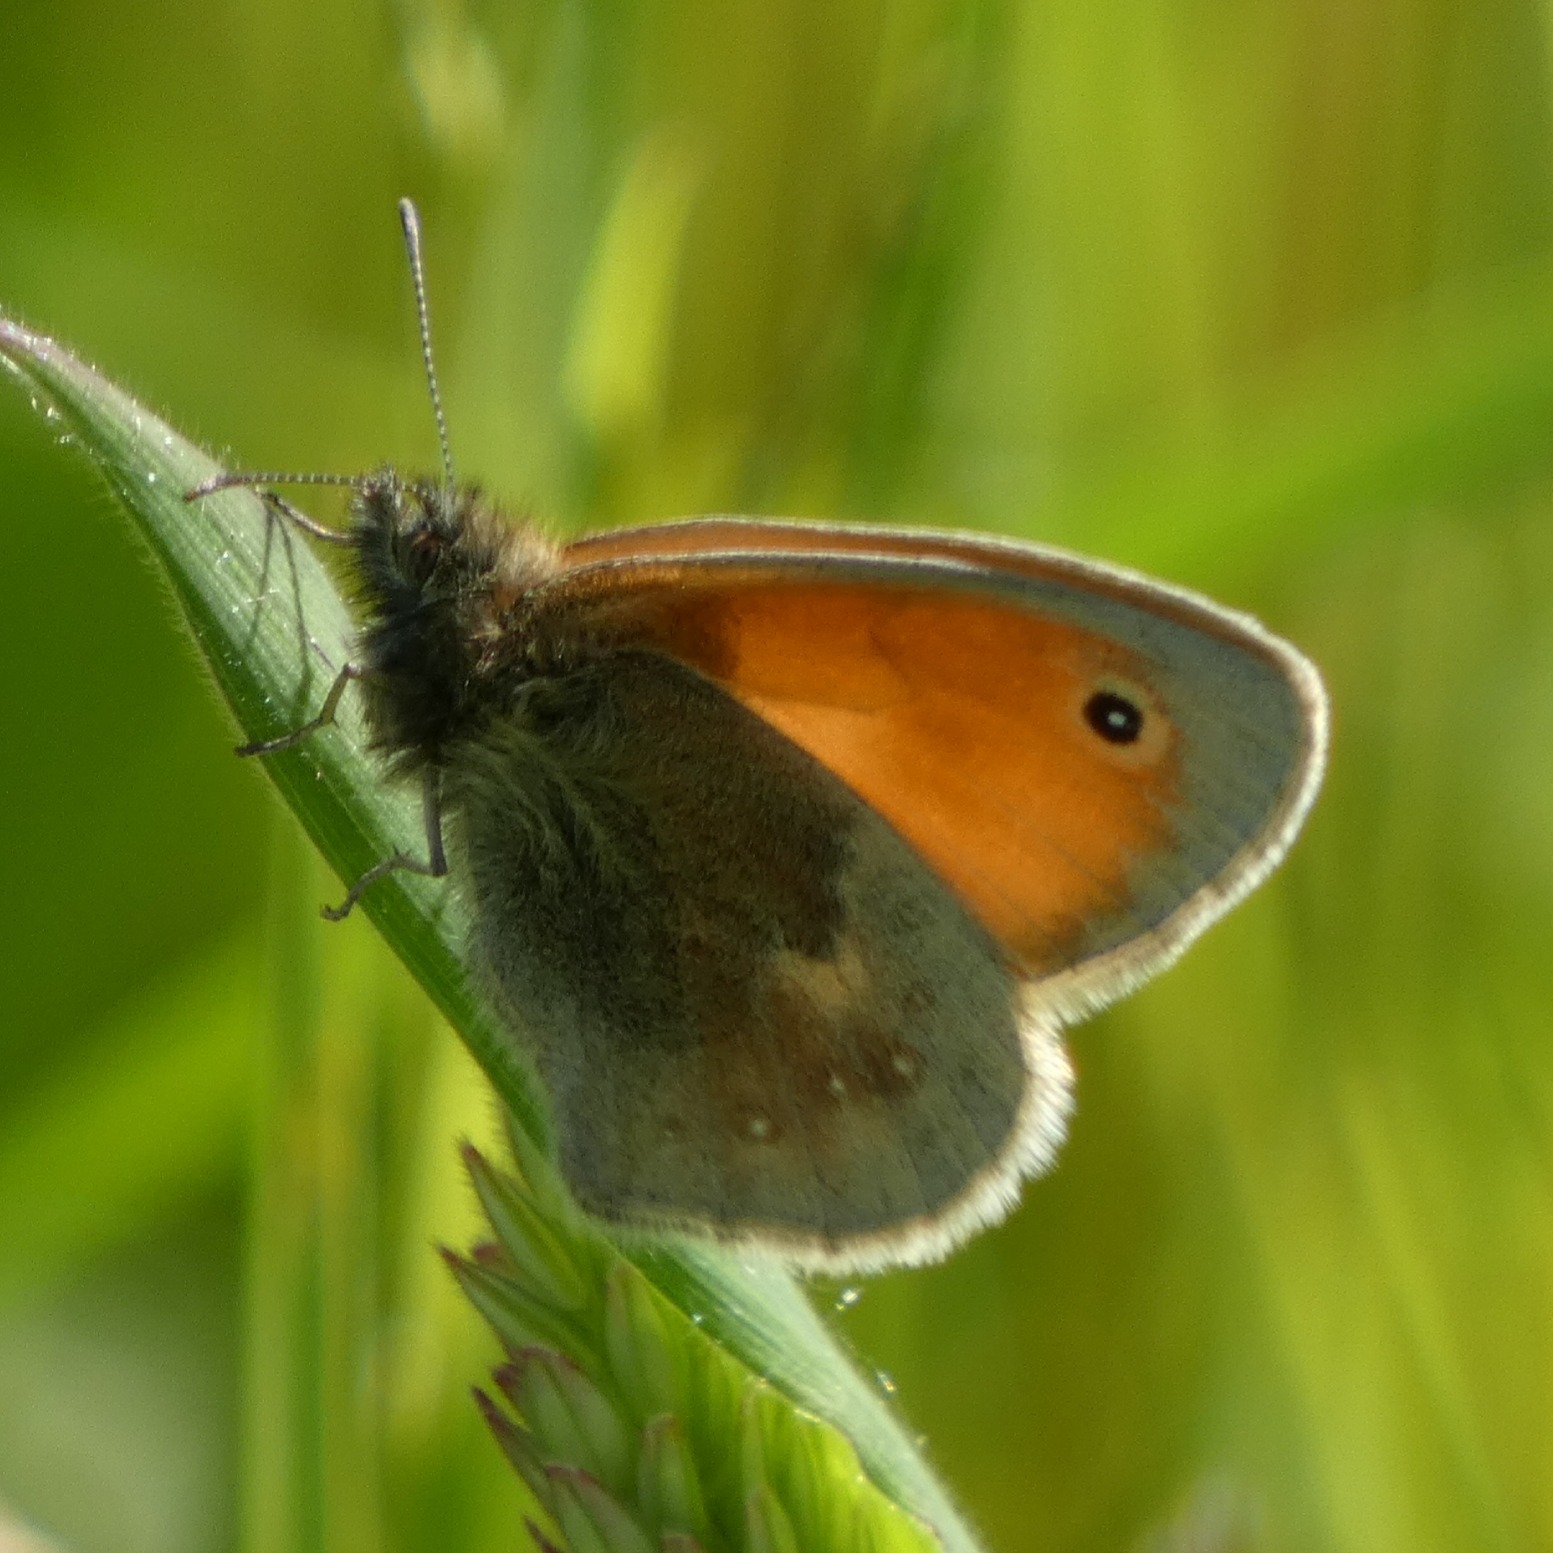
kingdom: Animalia
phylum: Arthropoda
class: Insecta
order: Lepidoptera
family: Nymphalidae
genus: Coenonympha
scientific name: Coenonympha pamphilus
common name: Okkergul randøje
